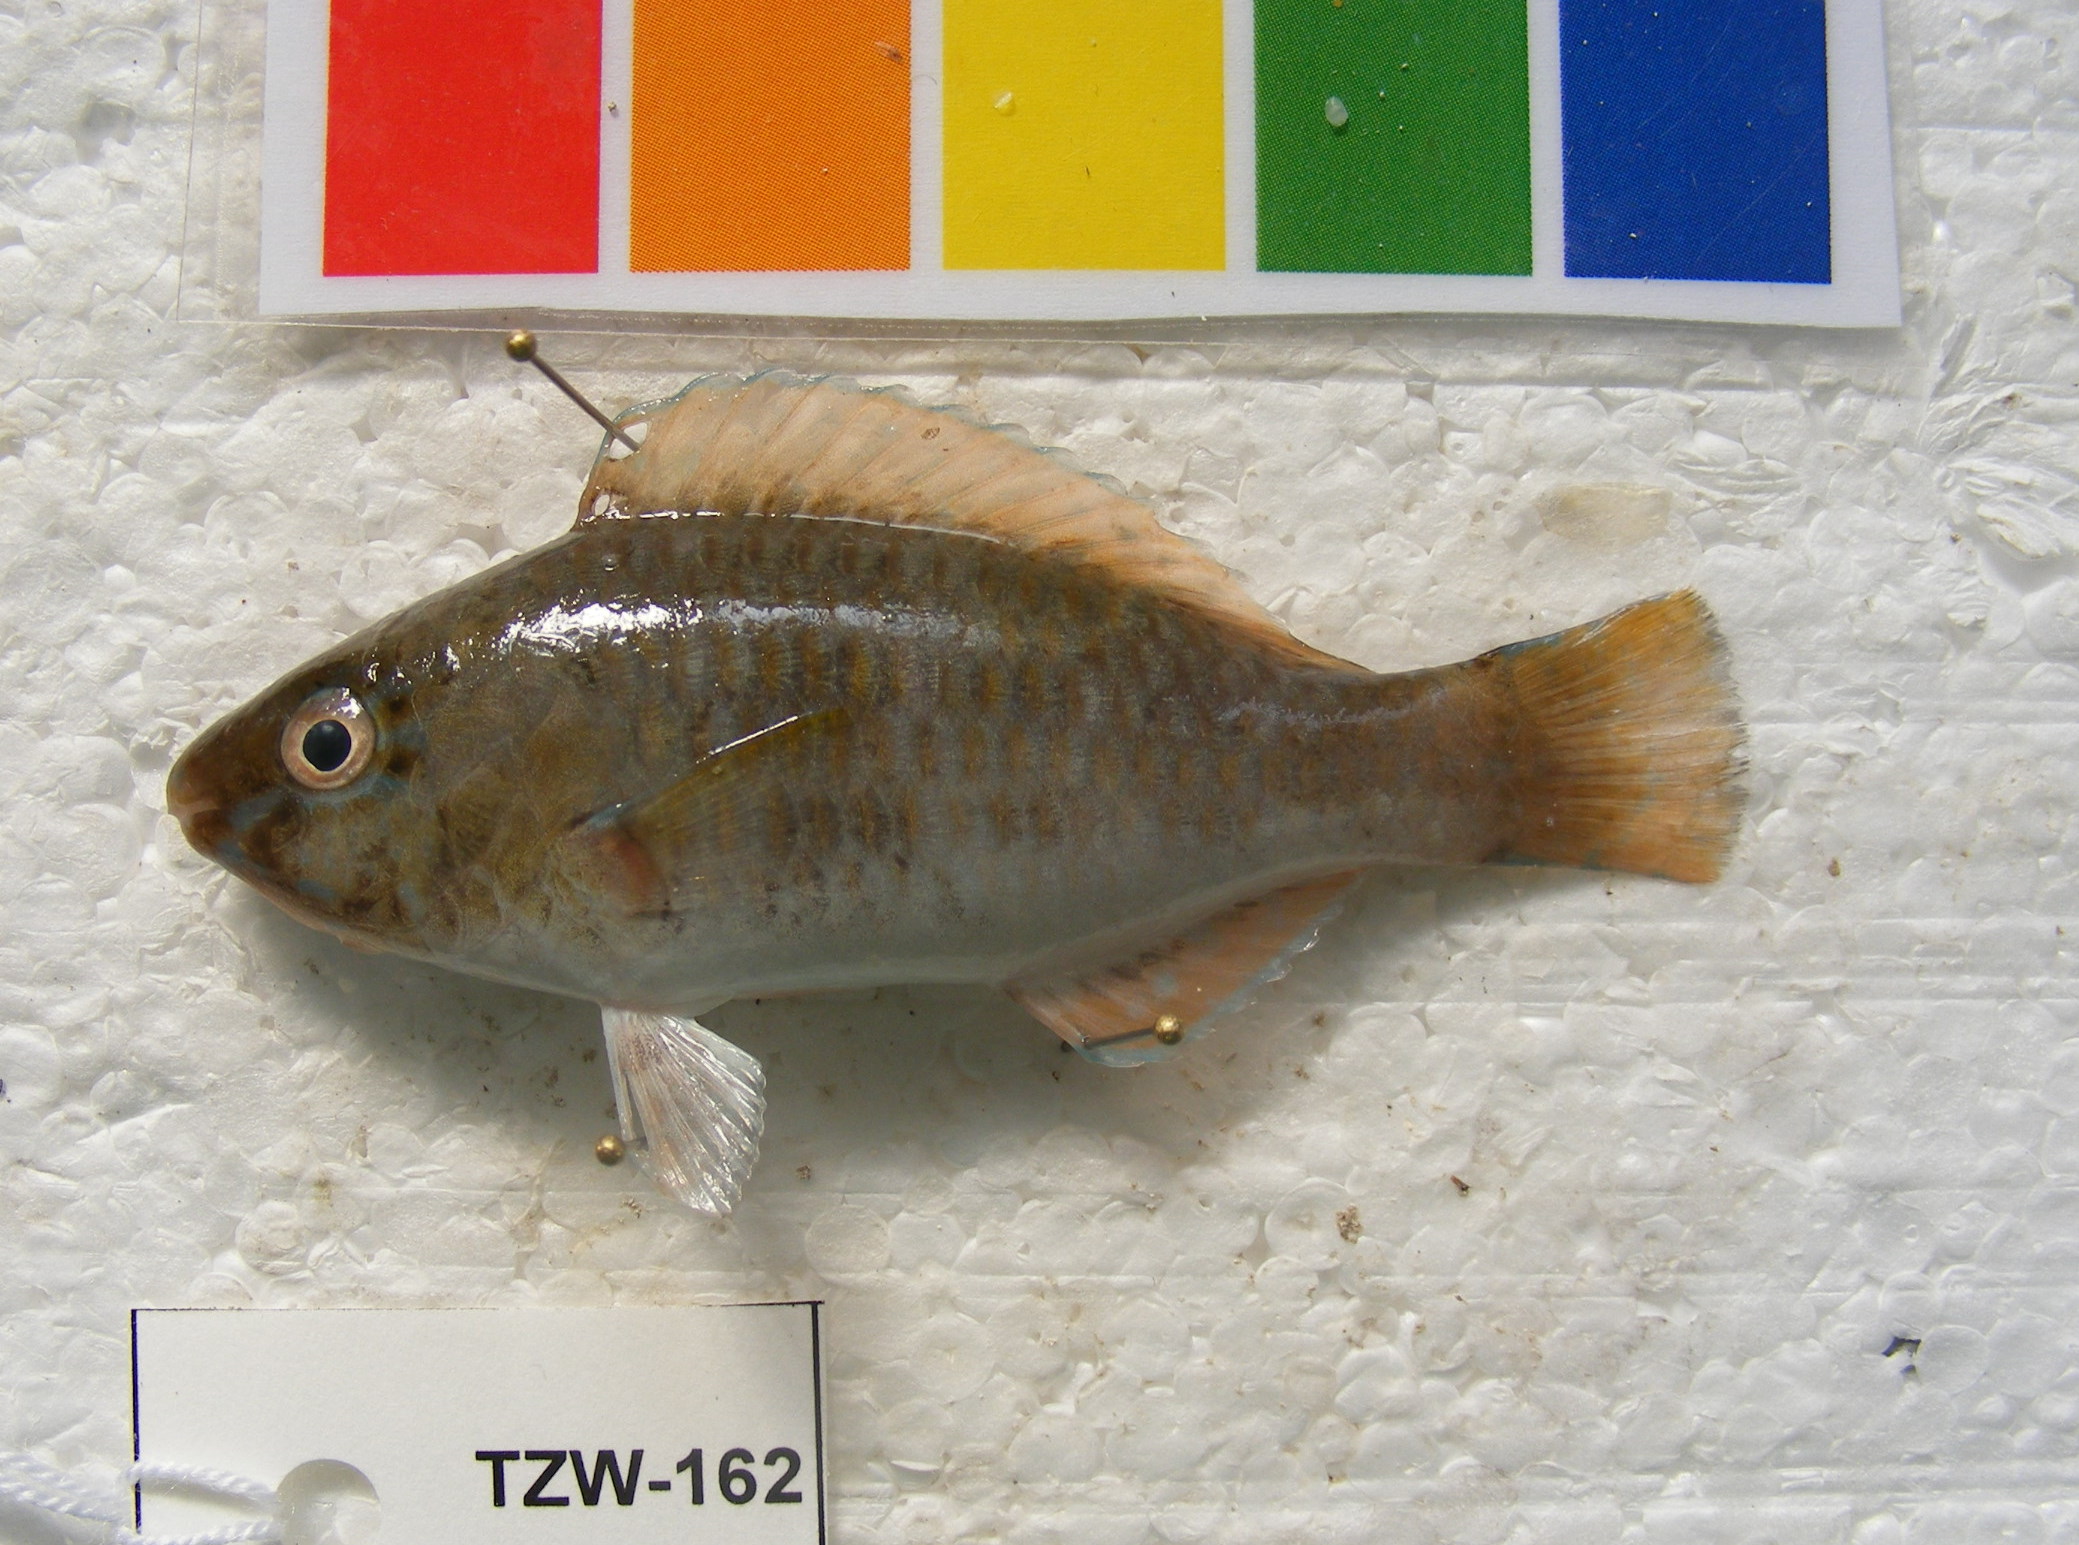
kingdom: Animalia
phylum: Chordata
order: Perciformes
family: Scaridae
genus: Scarus
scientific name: Scarus
